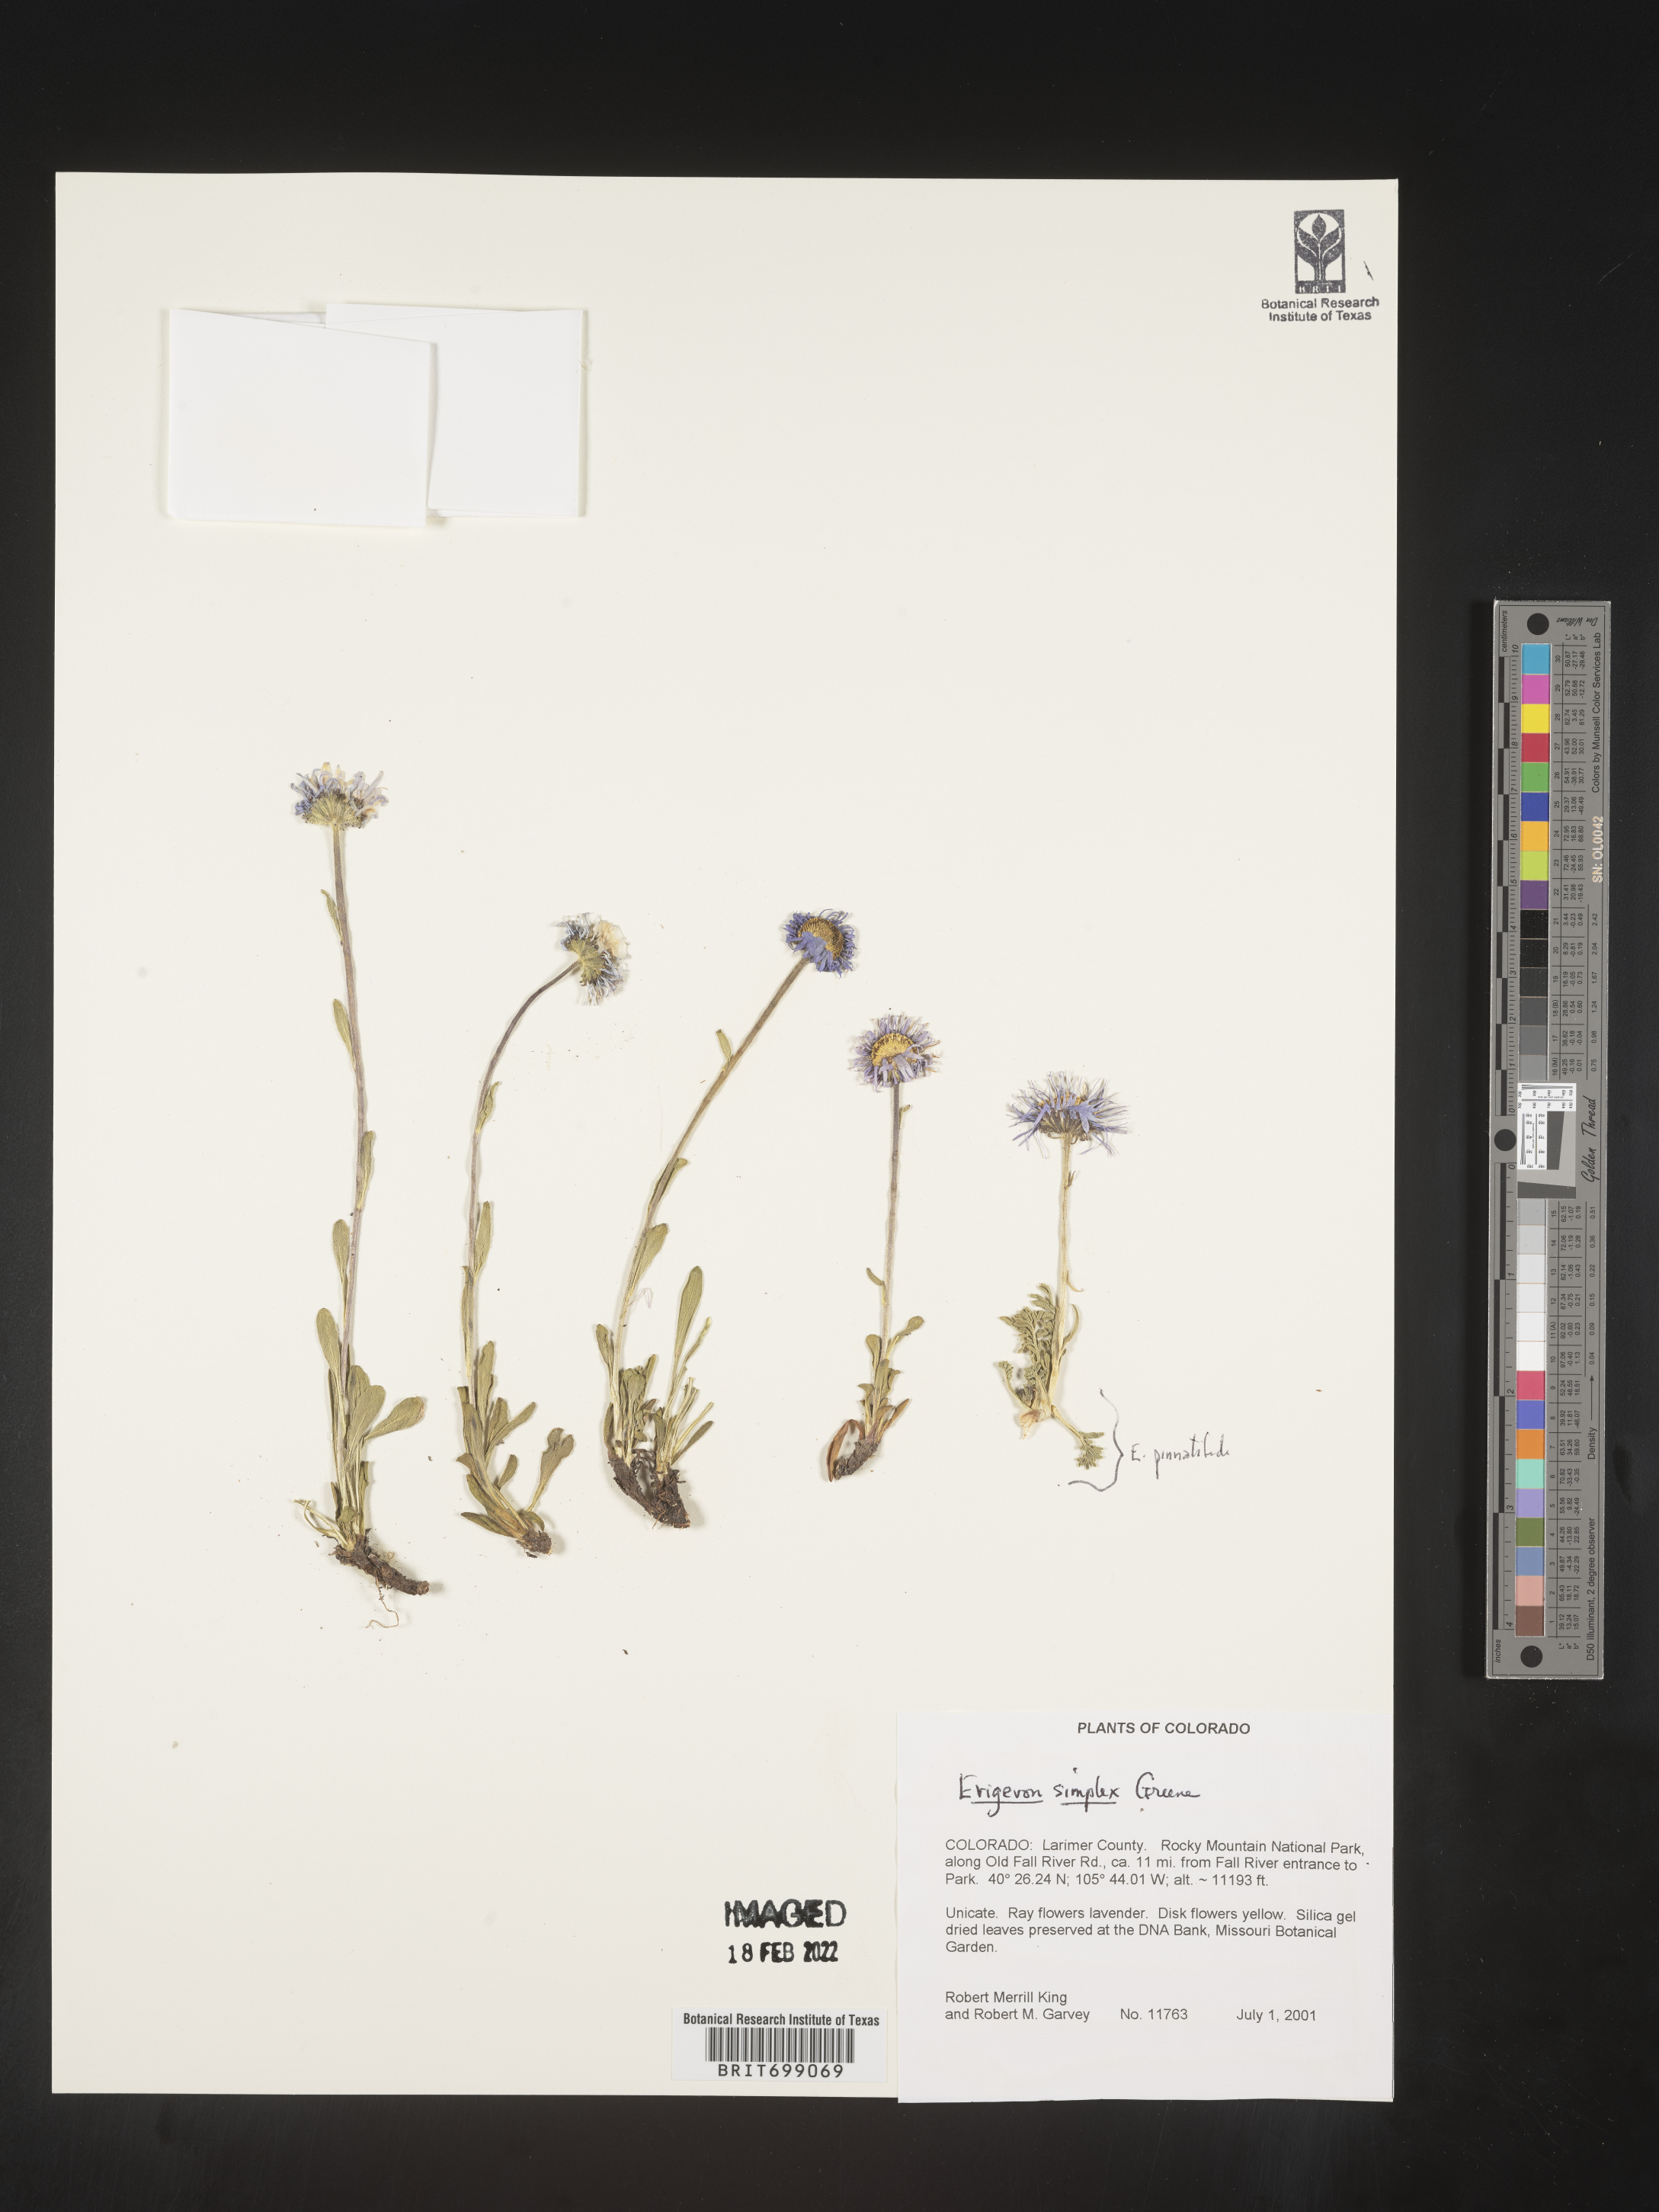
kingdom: Plantae
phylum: Tracheophyta
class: Magnoliopsida
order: Asterales
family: Asteraceae
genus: Erigeron
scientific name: Erigeron caucasicus
